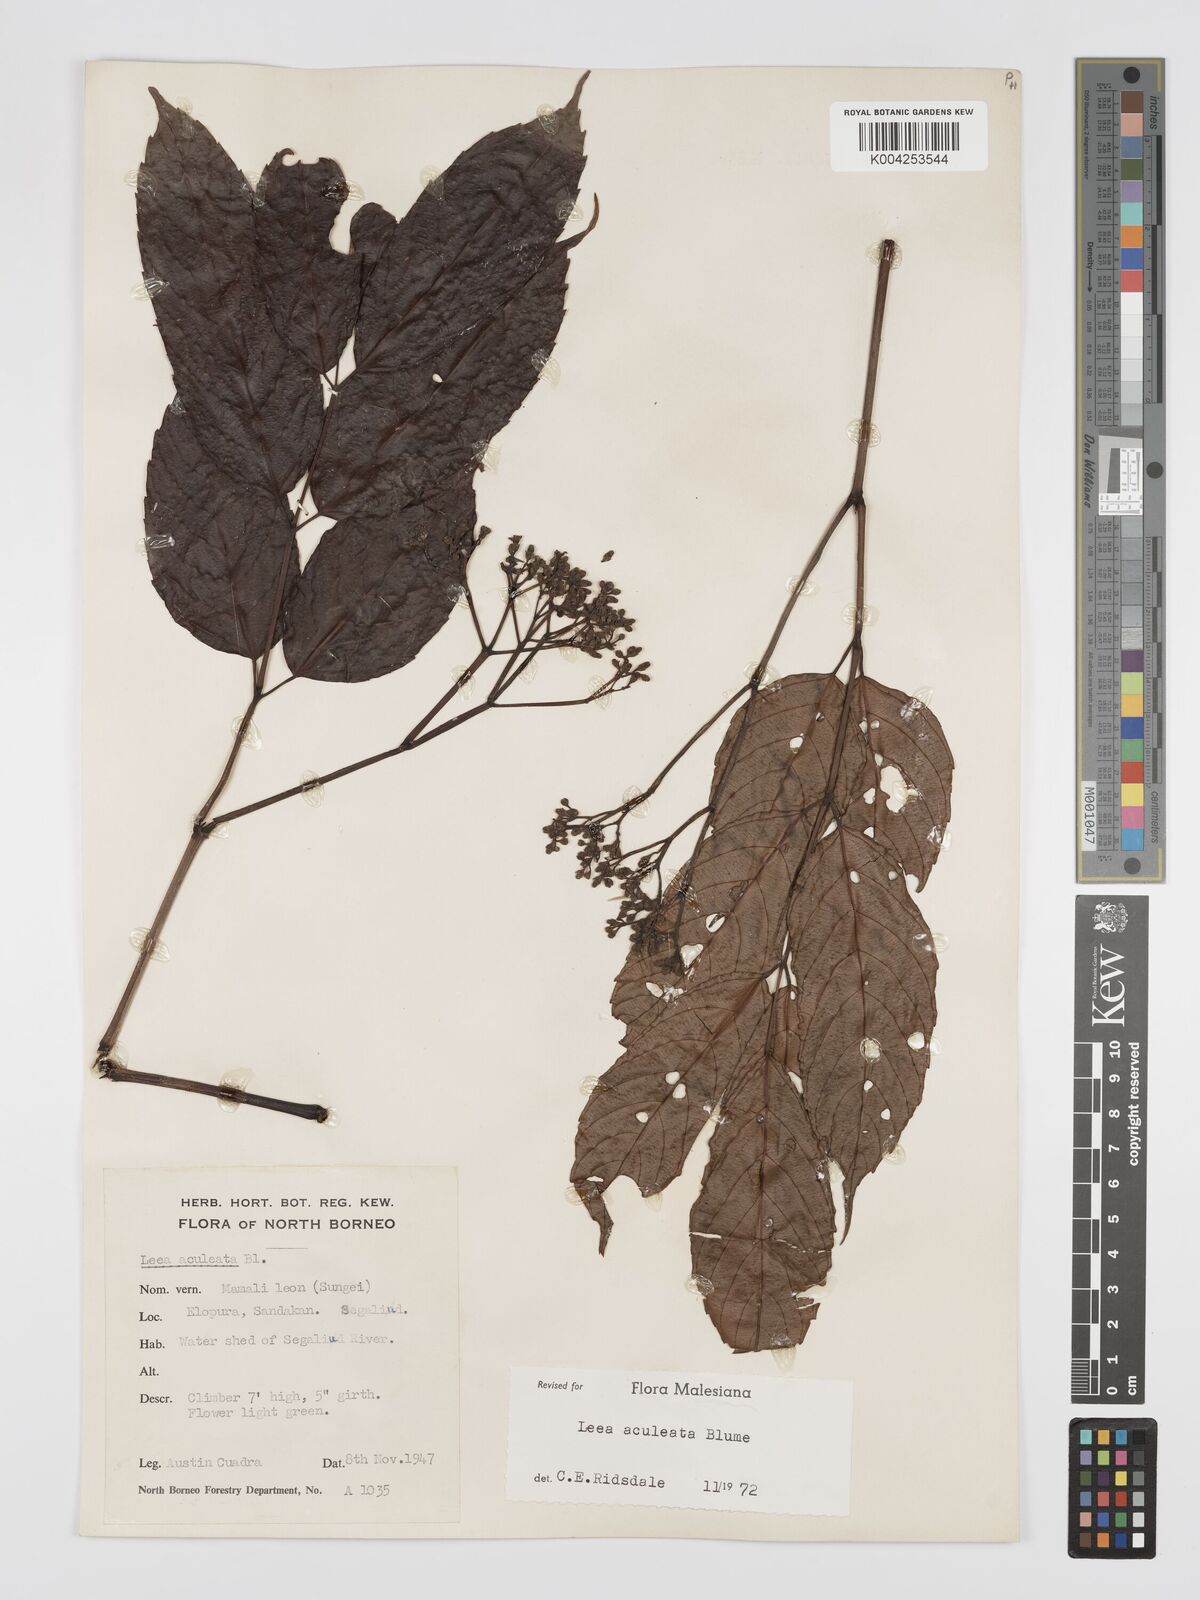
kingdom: Plantae
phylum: Tracheophyta
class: Magnoliopsida
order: Vitales
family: Vitaceae
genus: Leea
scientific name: Leea aculeata
